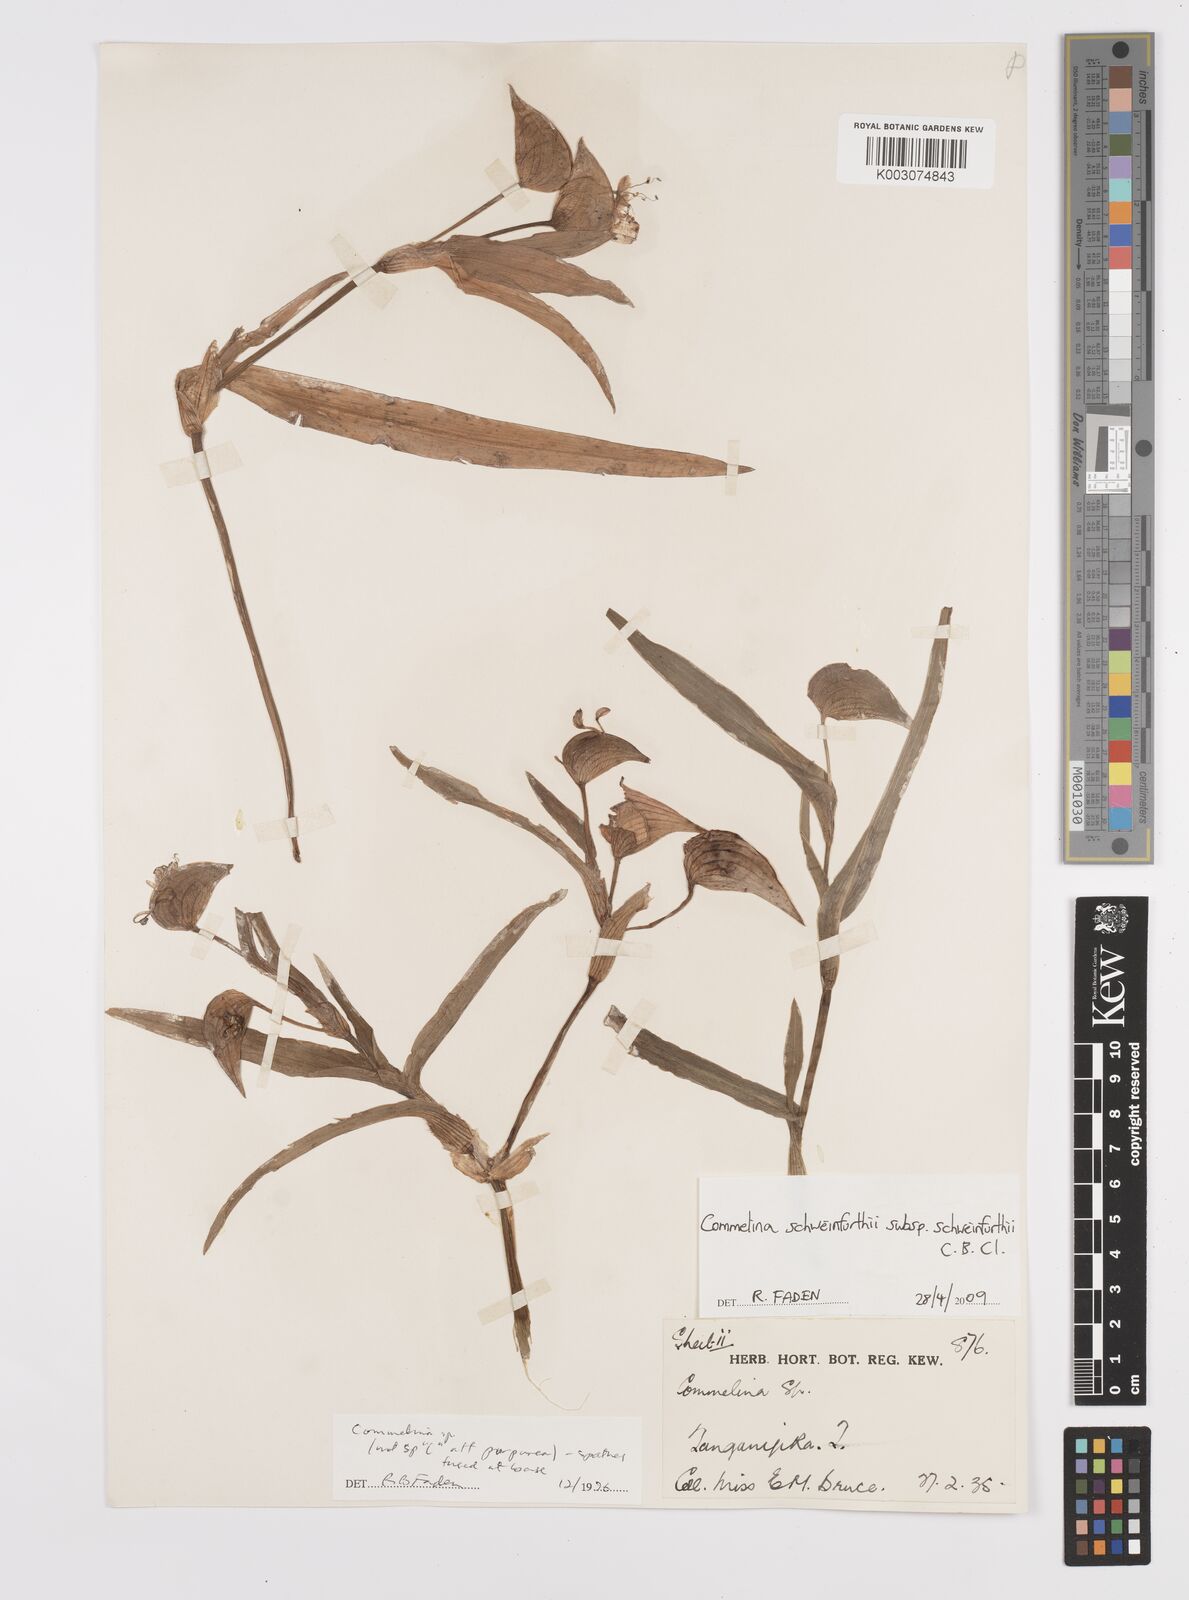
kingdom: Plantae
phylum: Tracheophyta
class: Liliopsida
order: Commelinales
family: Commelinaceae
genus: Commelina
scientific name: Commelina schweinfurthii
